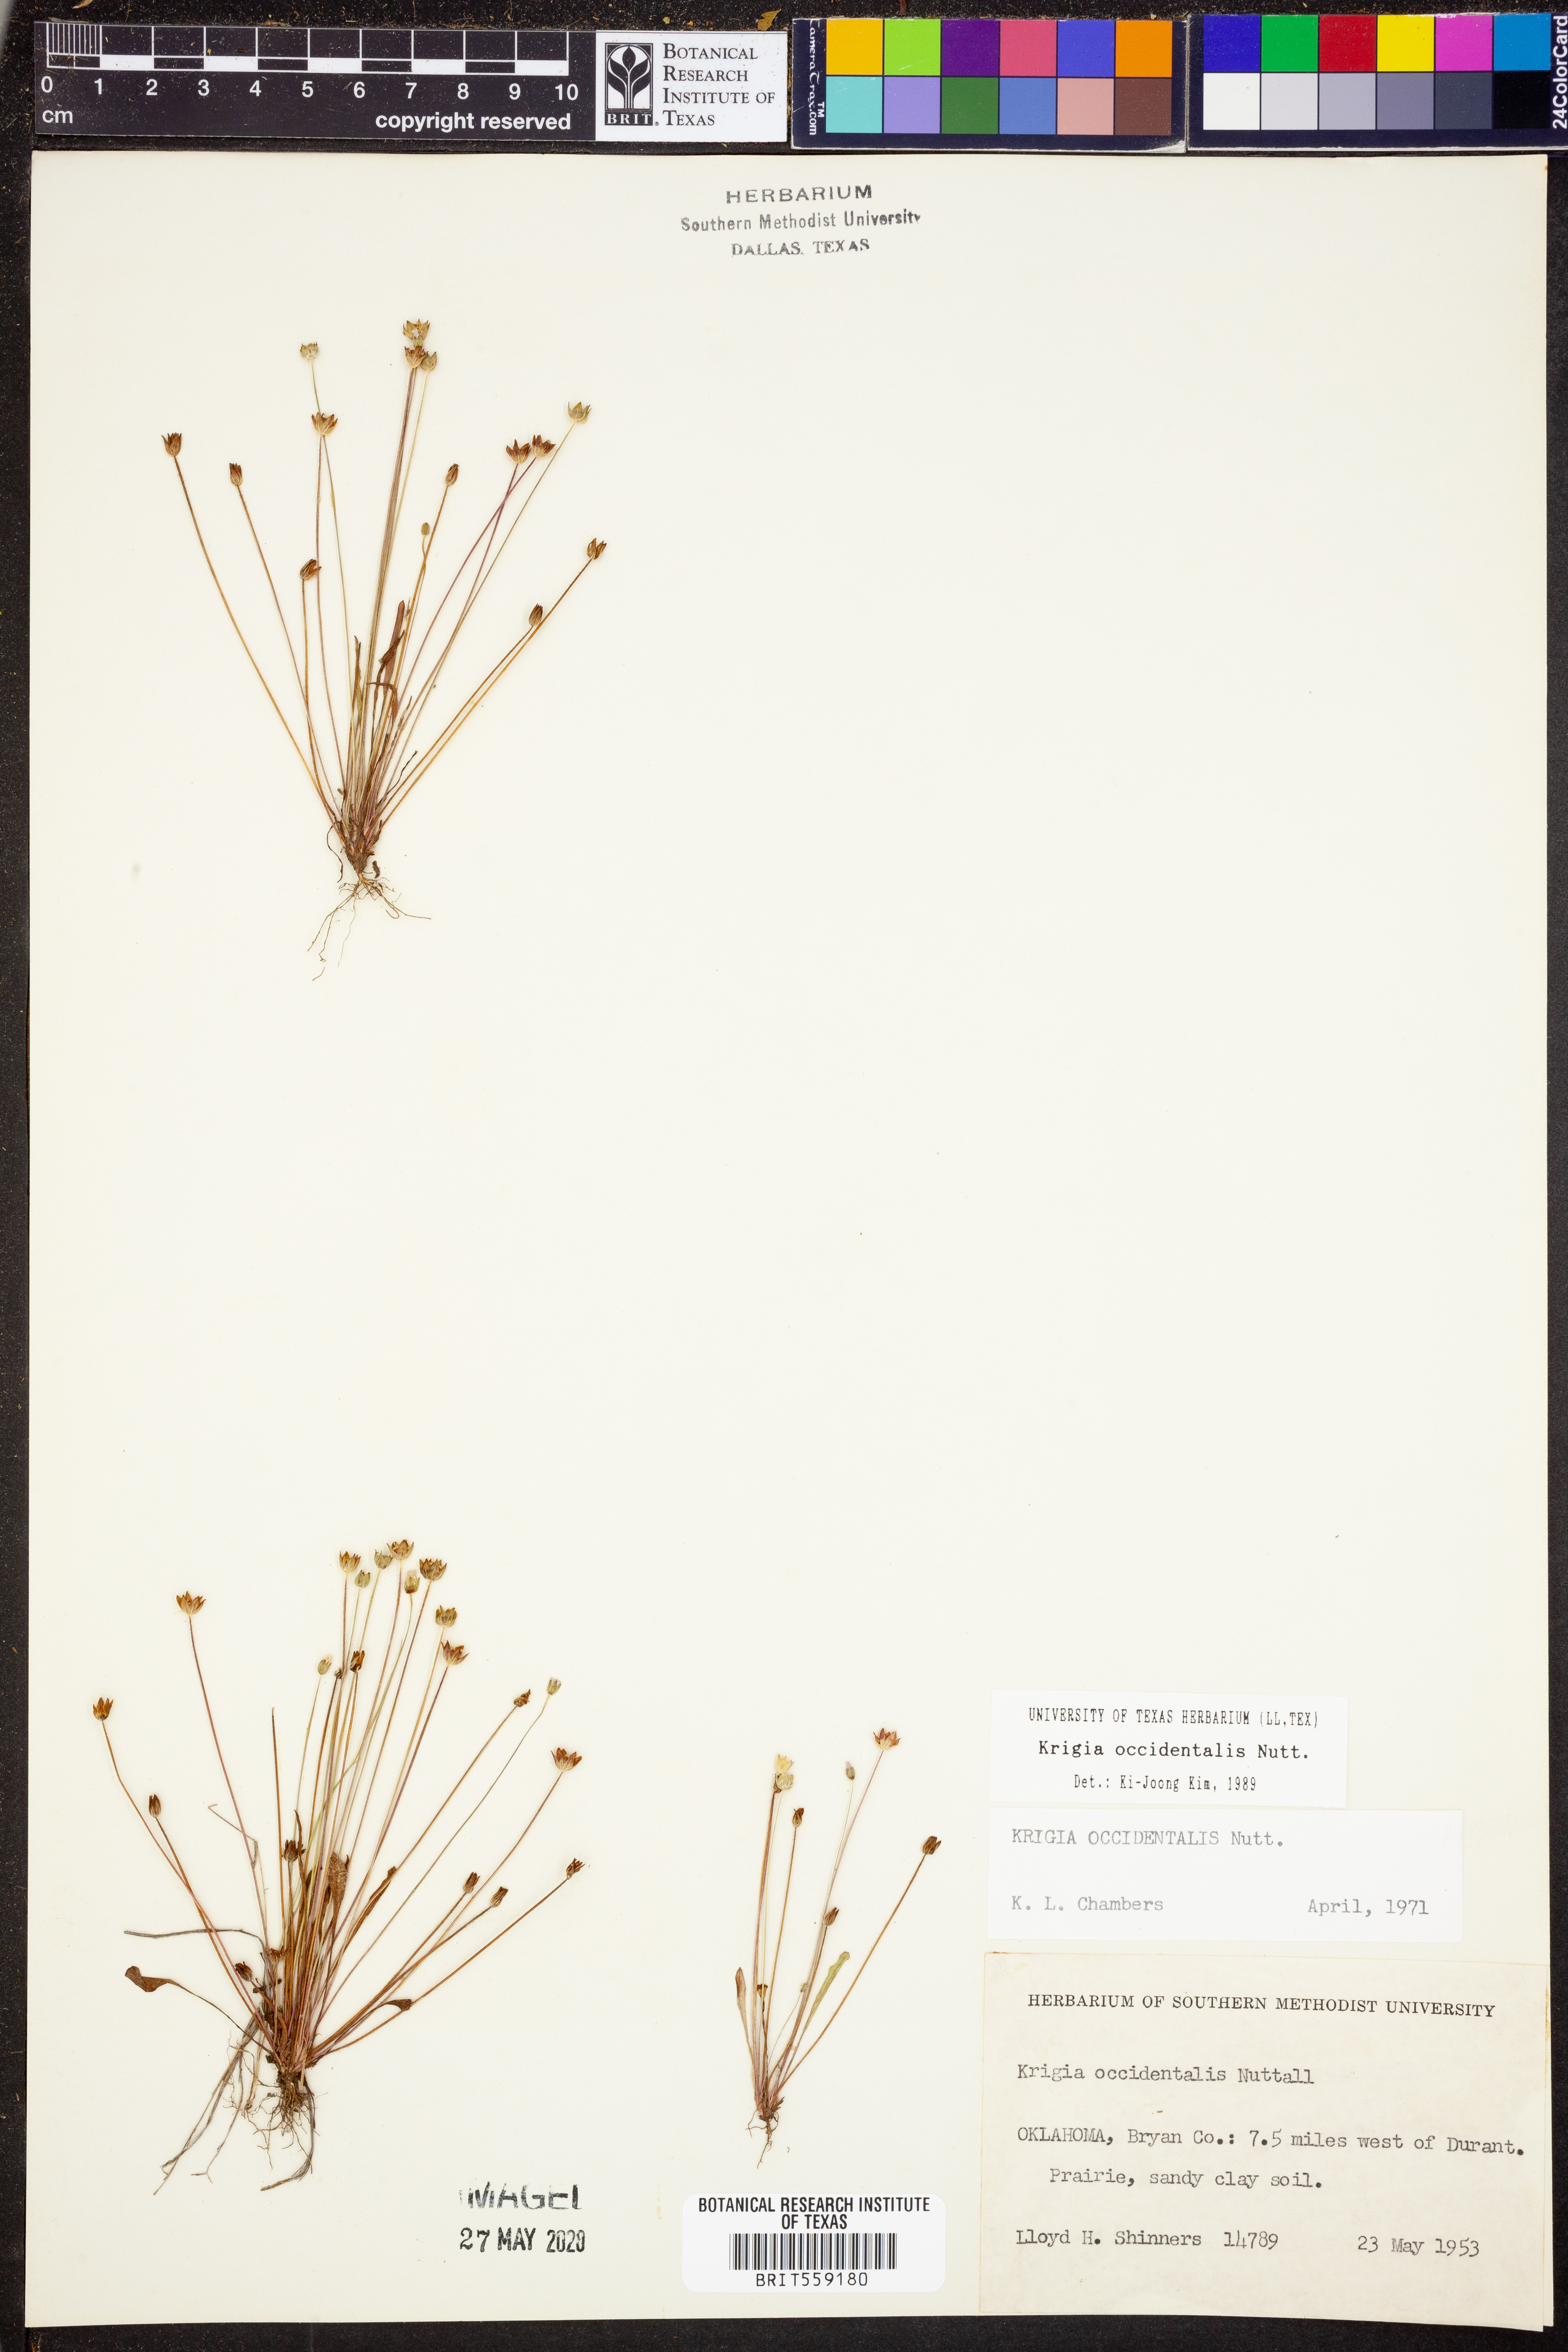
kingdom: Plantae
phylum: Tracheophyta
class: Magnoliopsida
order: Asterales
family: Asteraceae
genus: Krigia
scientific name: Krigia occidentalis
